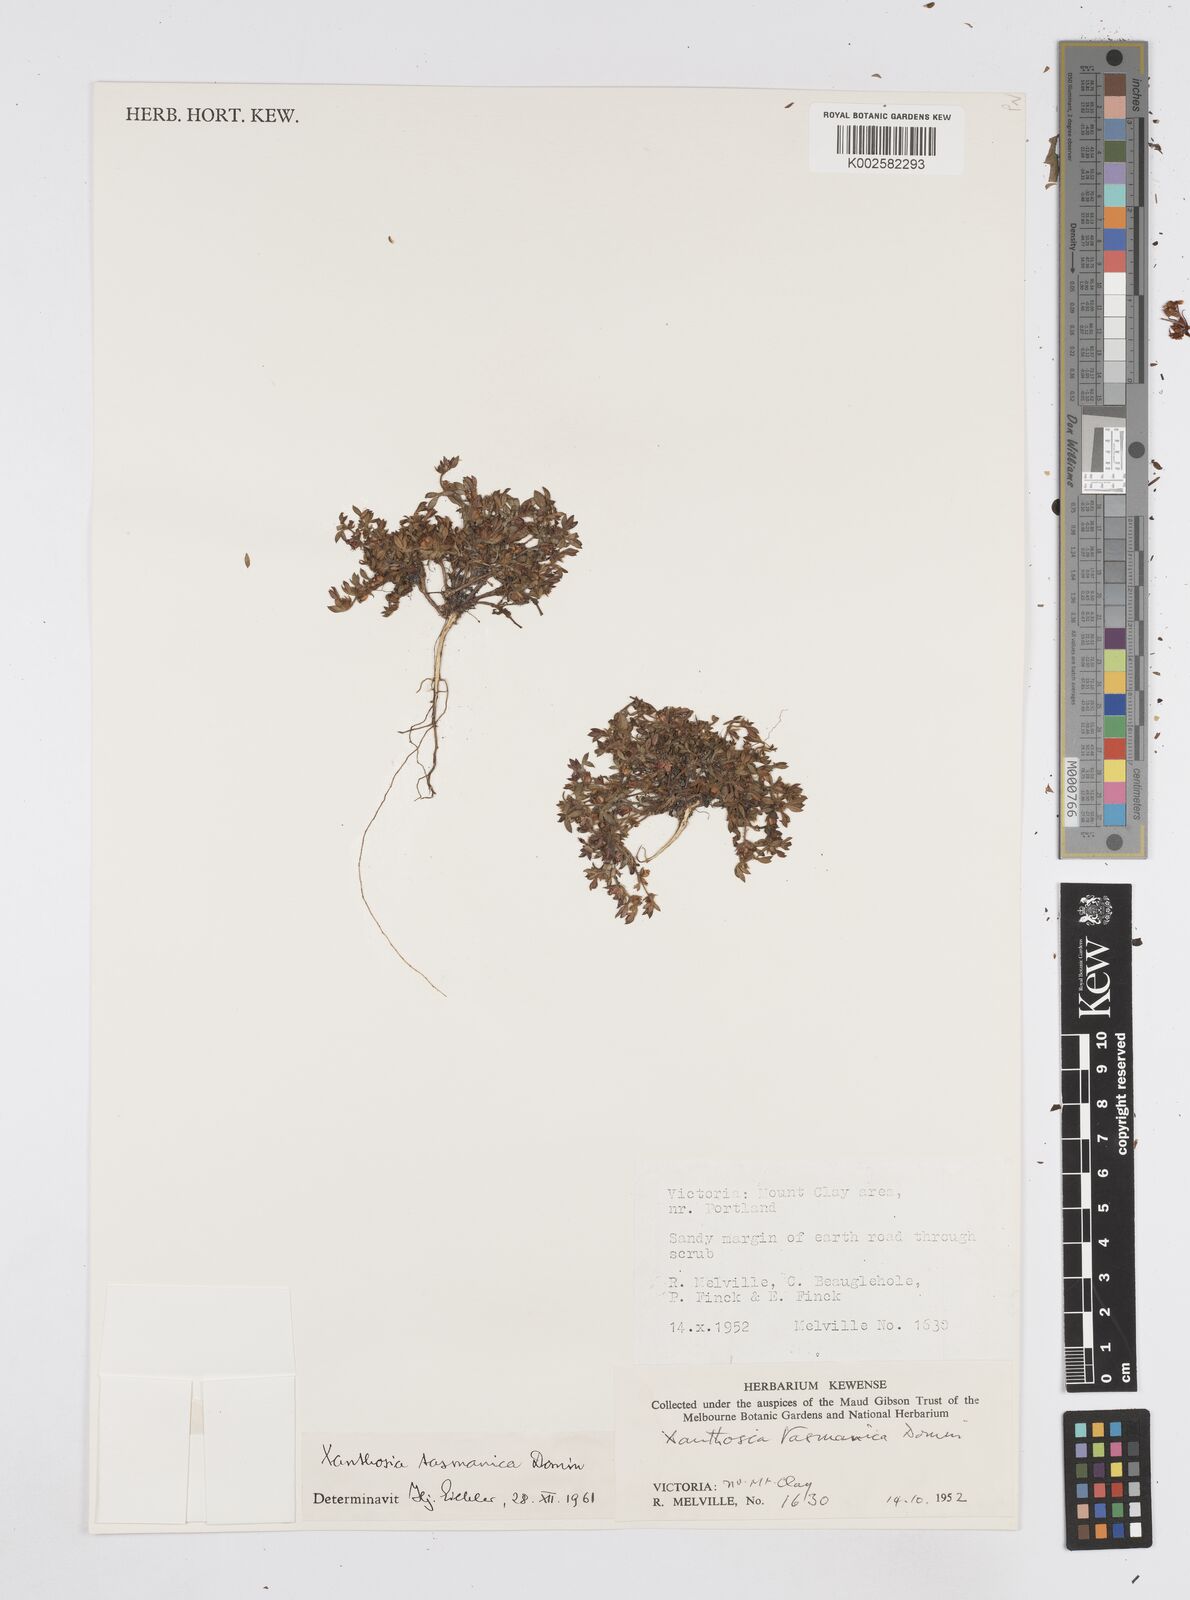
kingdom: Plantae
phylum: Tracheophyta
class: Magnoliopsida
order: Apiales
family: Apiaceae
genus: Xanthosia
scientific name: Xanthosia tasmanica
